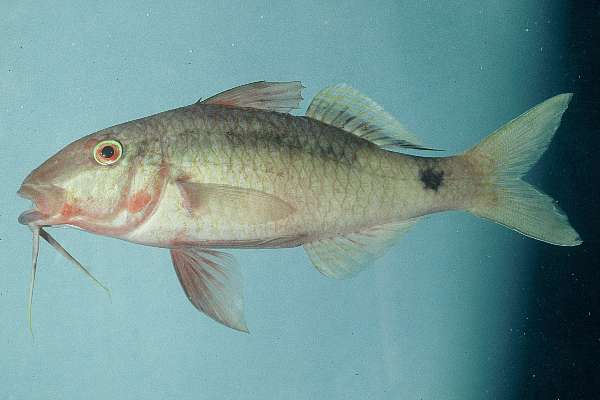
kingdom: Animalia
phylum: Chordata
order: Perciformes
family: Mullidae
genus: Parupeneus
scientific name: Parupeneus macronemus
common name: Long-barbel goatfish
